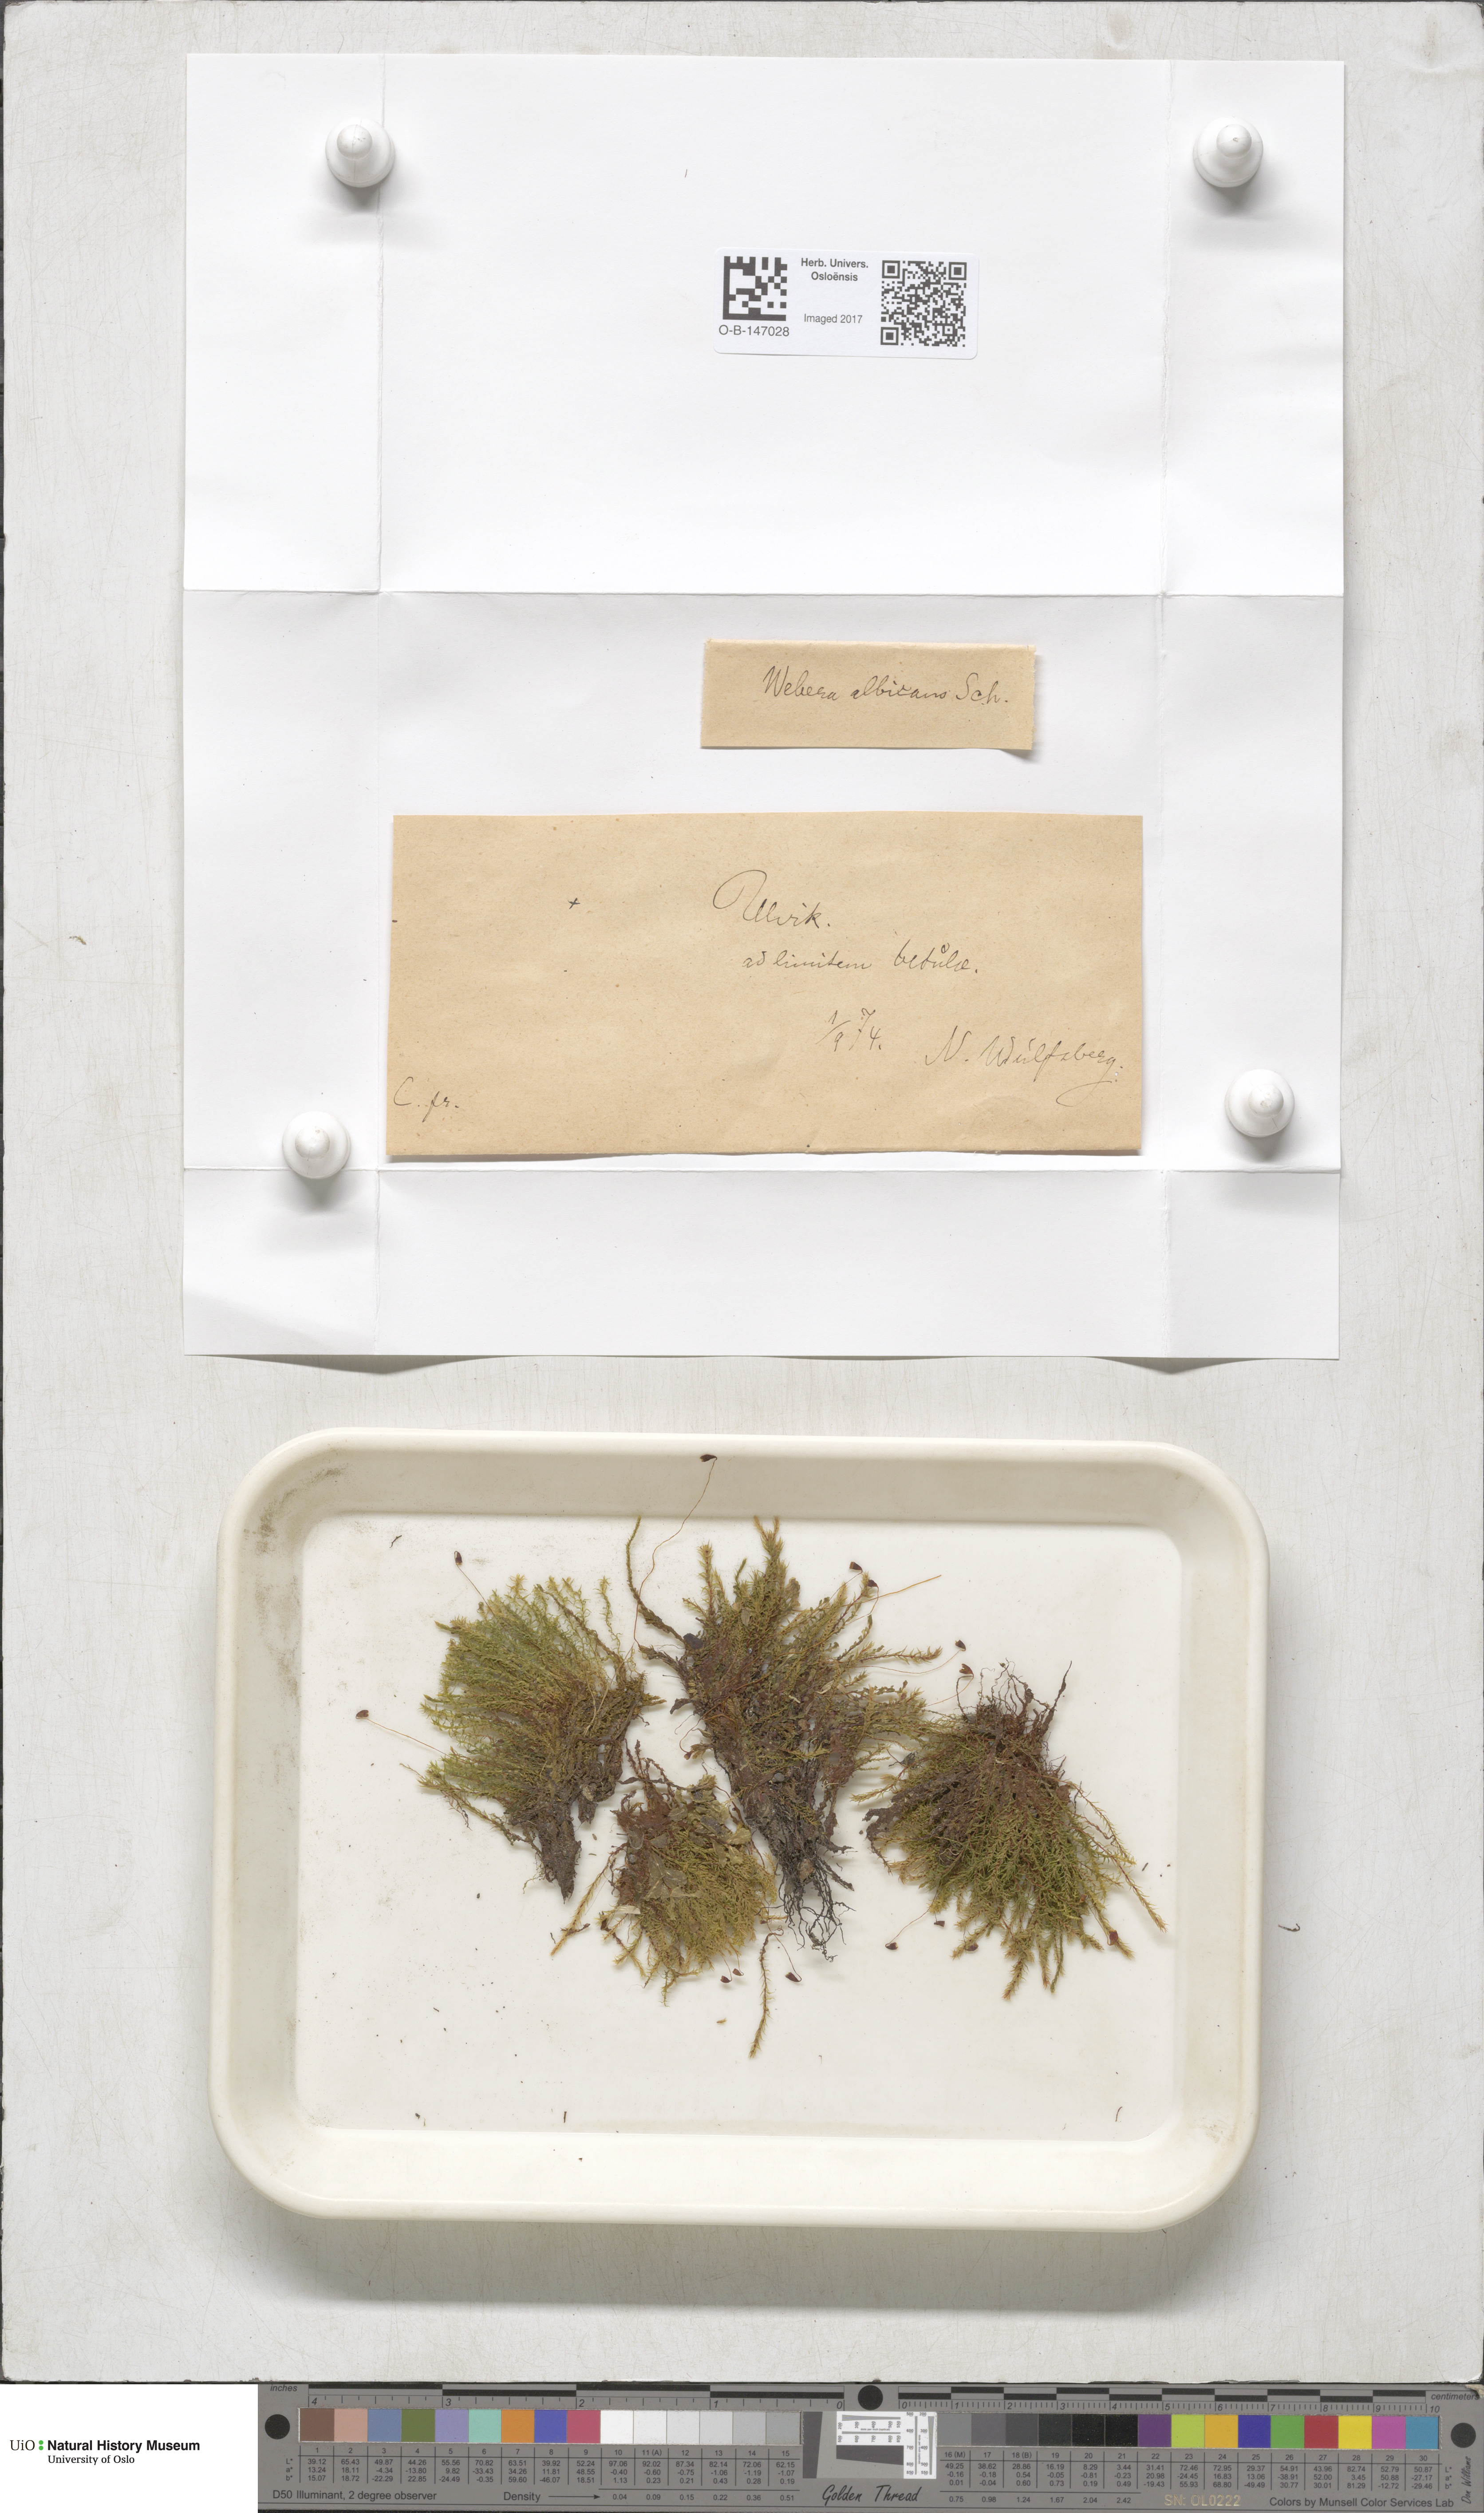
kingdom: Plantae
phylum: Bryophyta
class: Bryopsida
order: Bryales
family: Mniaceae
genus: Pohlia
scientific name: Pohlia wahlenbergii
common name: Wahlenberg's nodding moss
